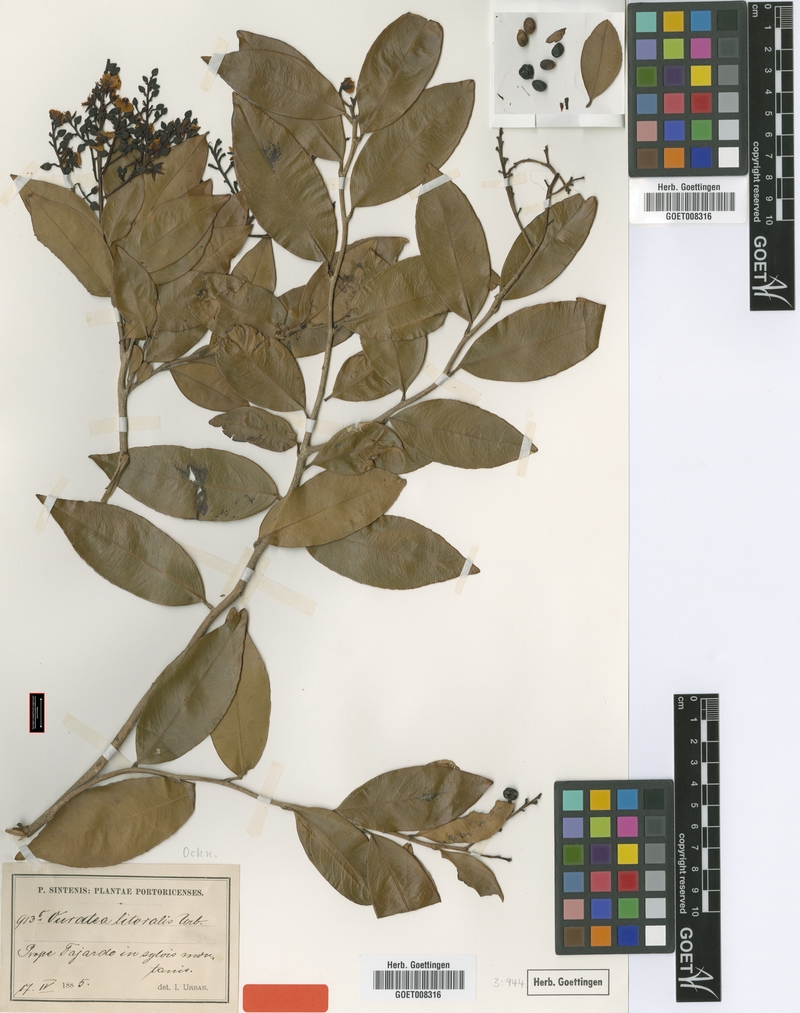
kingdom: Plantae
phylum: Tracheophyta
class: Magnoliopsida
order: Malpighiales
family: Ochnaceae
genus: Ouratea
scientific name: Ouratea litoralis
